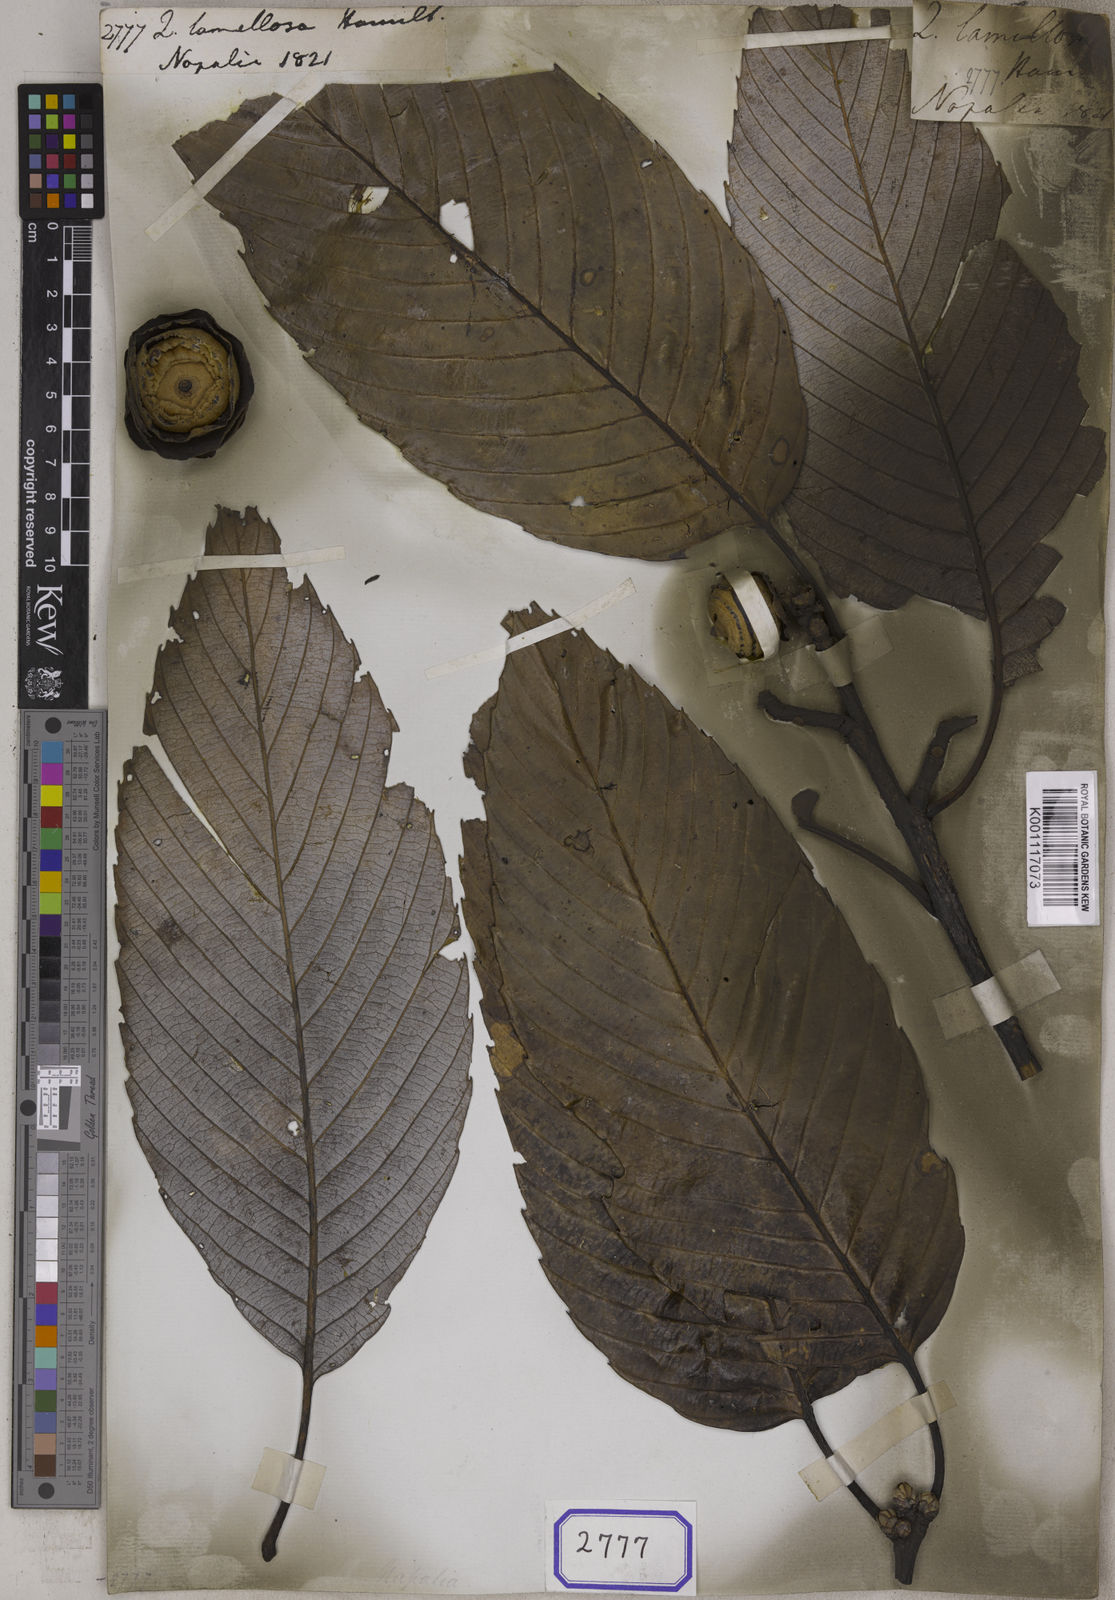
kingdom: Plantae
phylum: Tracheophyta
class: Magnoliopsida
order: Fagales
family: Fagaceae
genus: Quercus
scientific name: Quercus lamellosa
